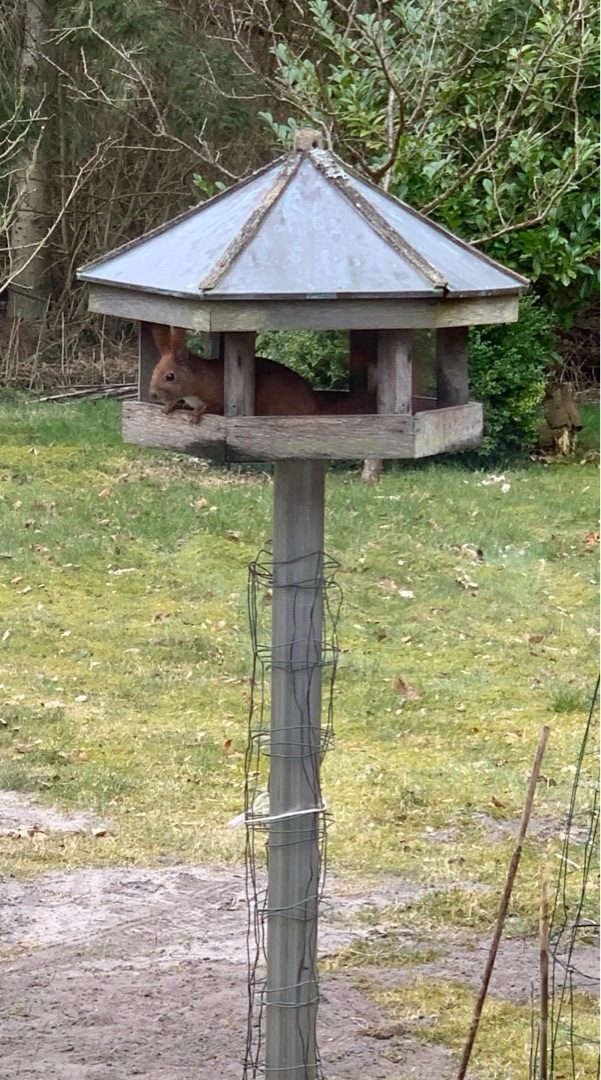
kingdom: Animalia
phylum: Chordata
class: Mammalia
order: Rodentia
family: Sciuridae
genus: Sciurus
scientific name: Sciurus vulgaris
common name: Egern
